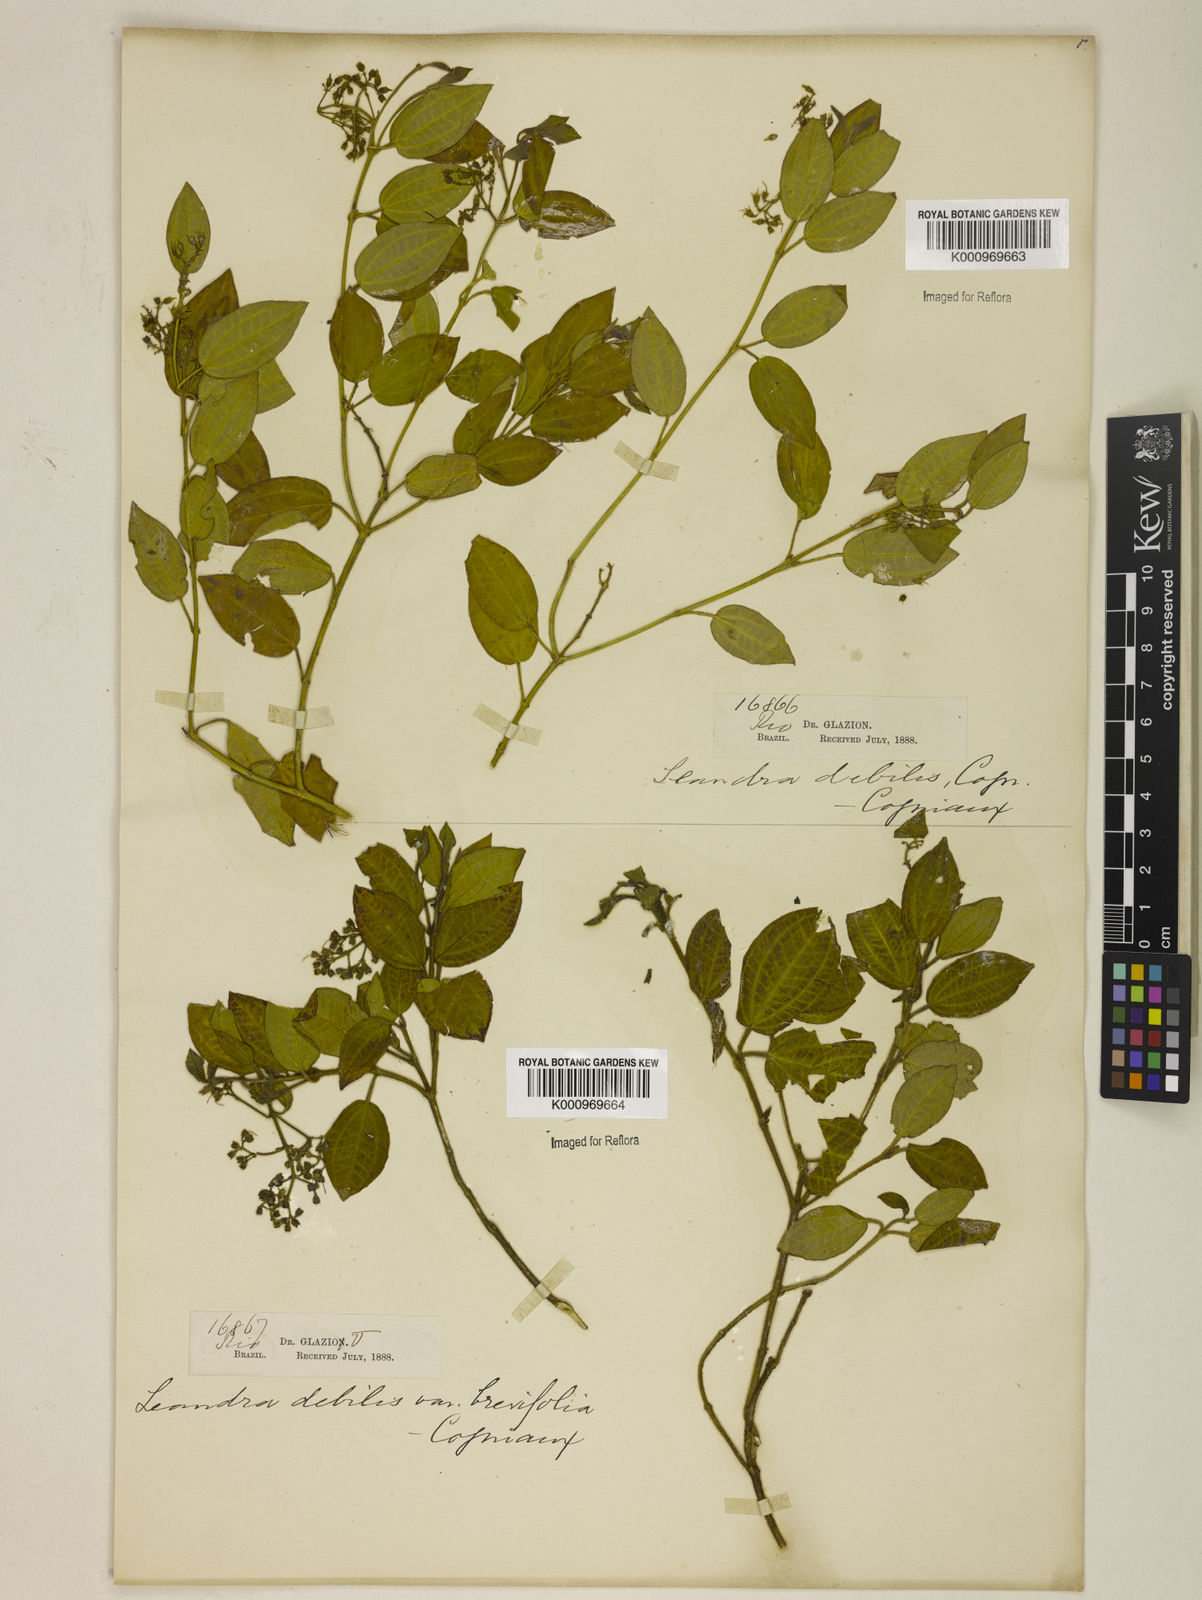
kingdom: Plantae
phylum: Tracheophyta
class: Magnoliopsida
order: Myrtales
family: Melastomataceae
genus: Miconia
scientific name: Miconia leadebilis
